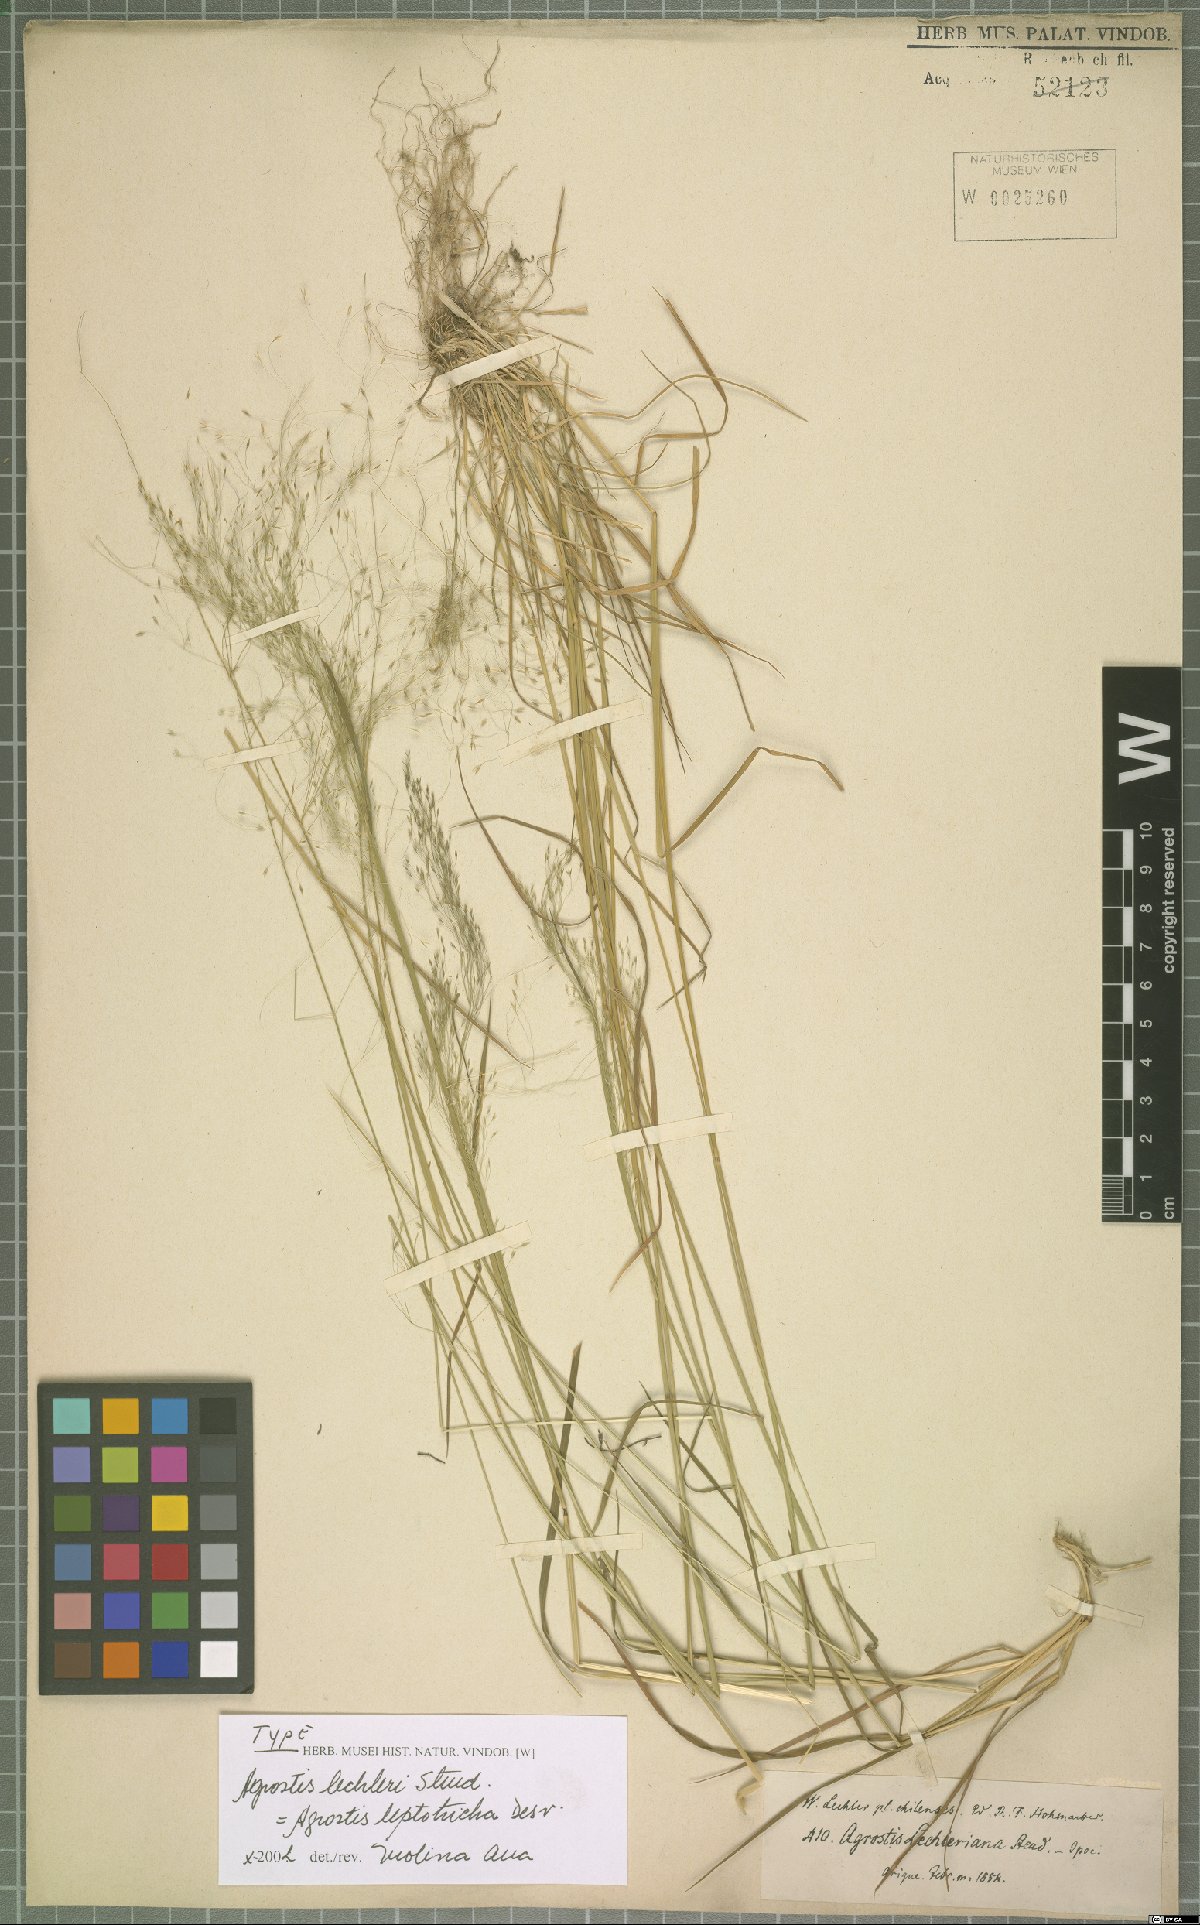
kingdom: Plantae
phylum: Tracheophyta
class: Liliopsida
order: Poales
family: Poaceae
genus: Agrostis
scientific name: Agrostis leptotricha
